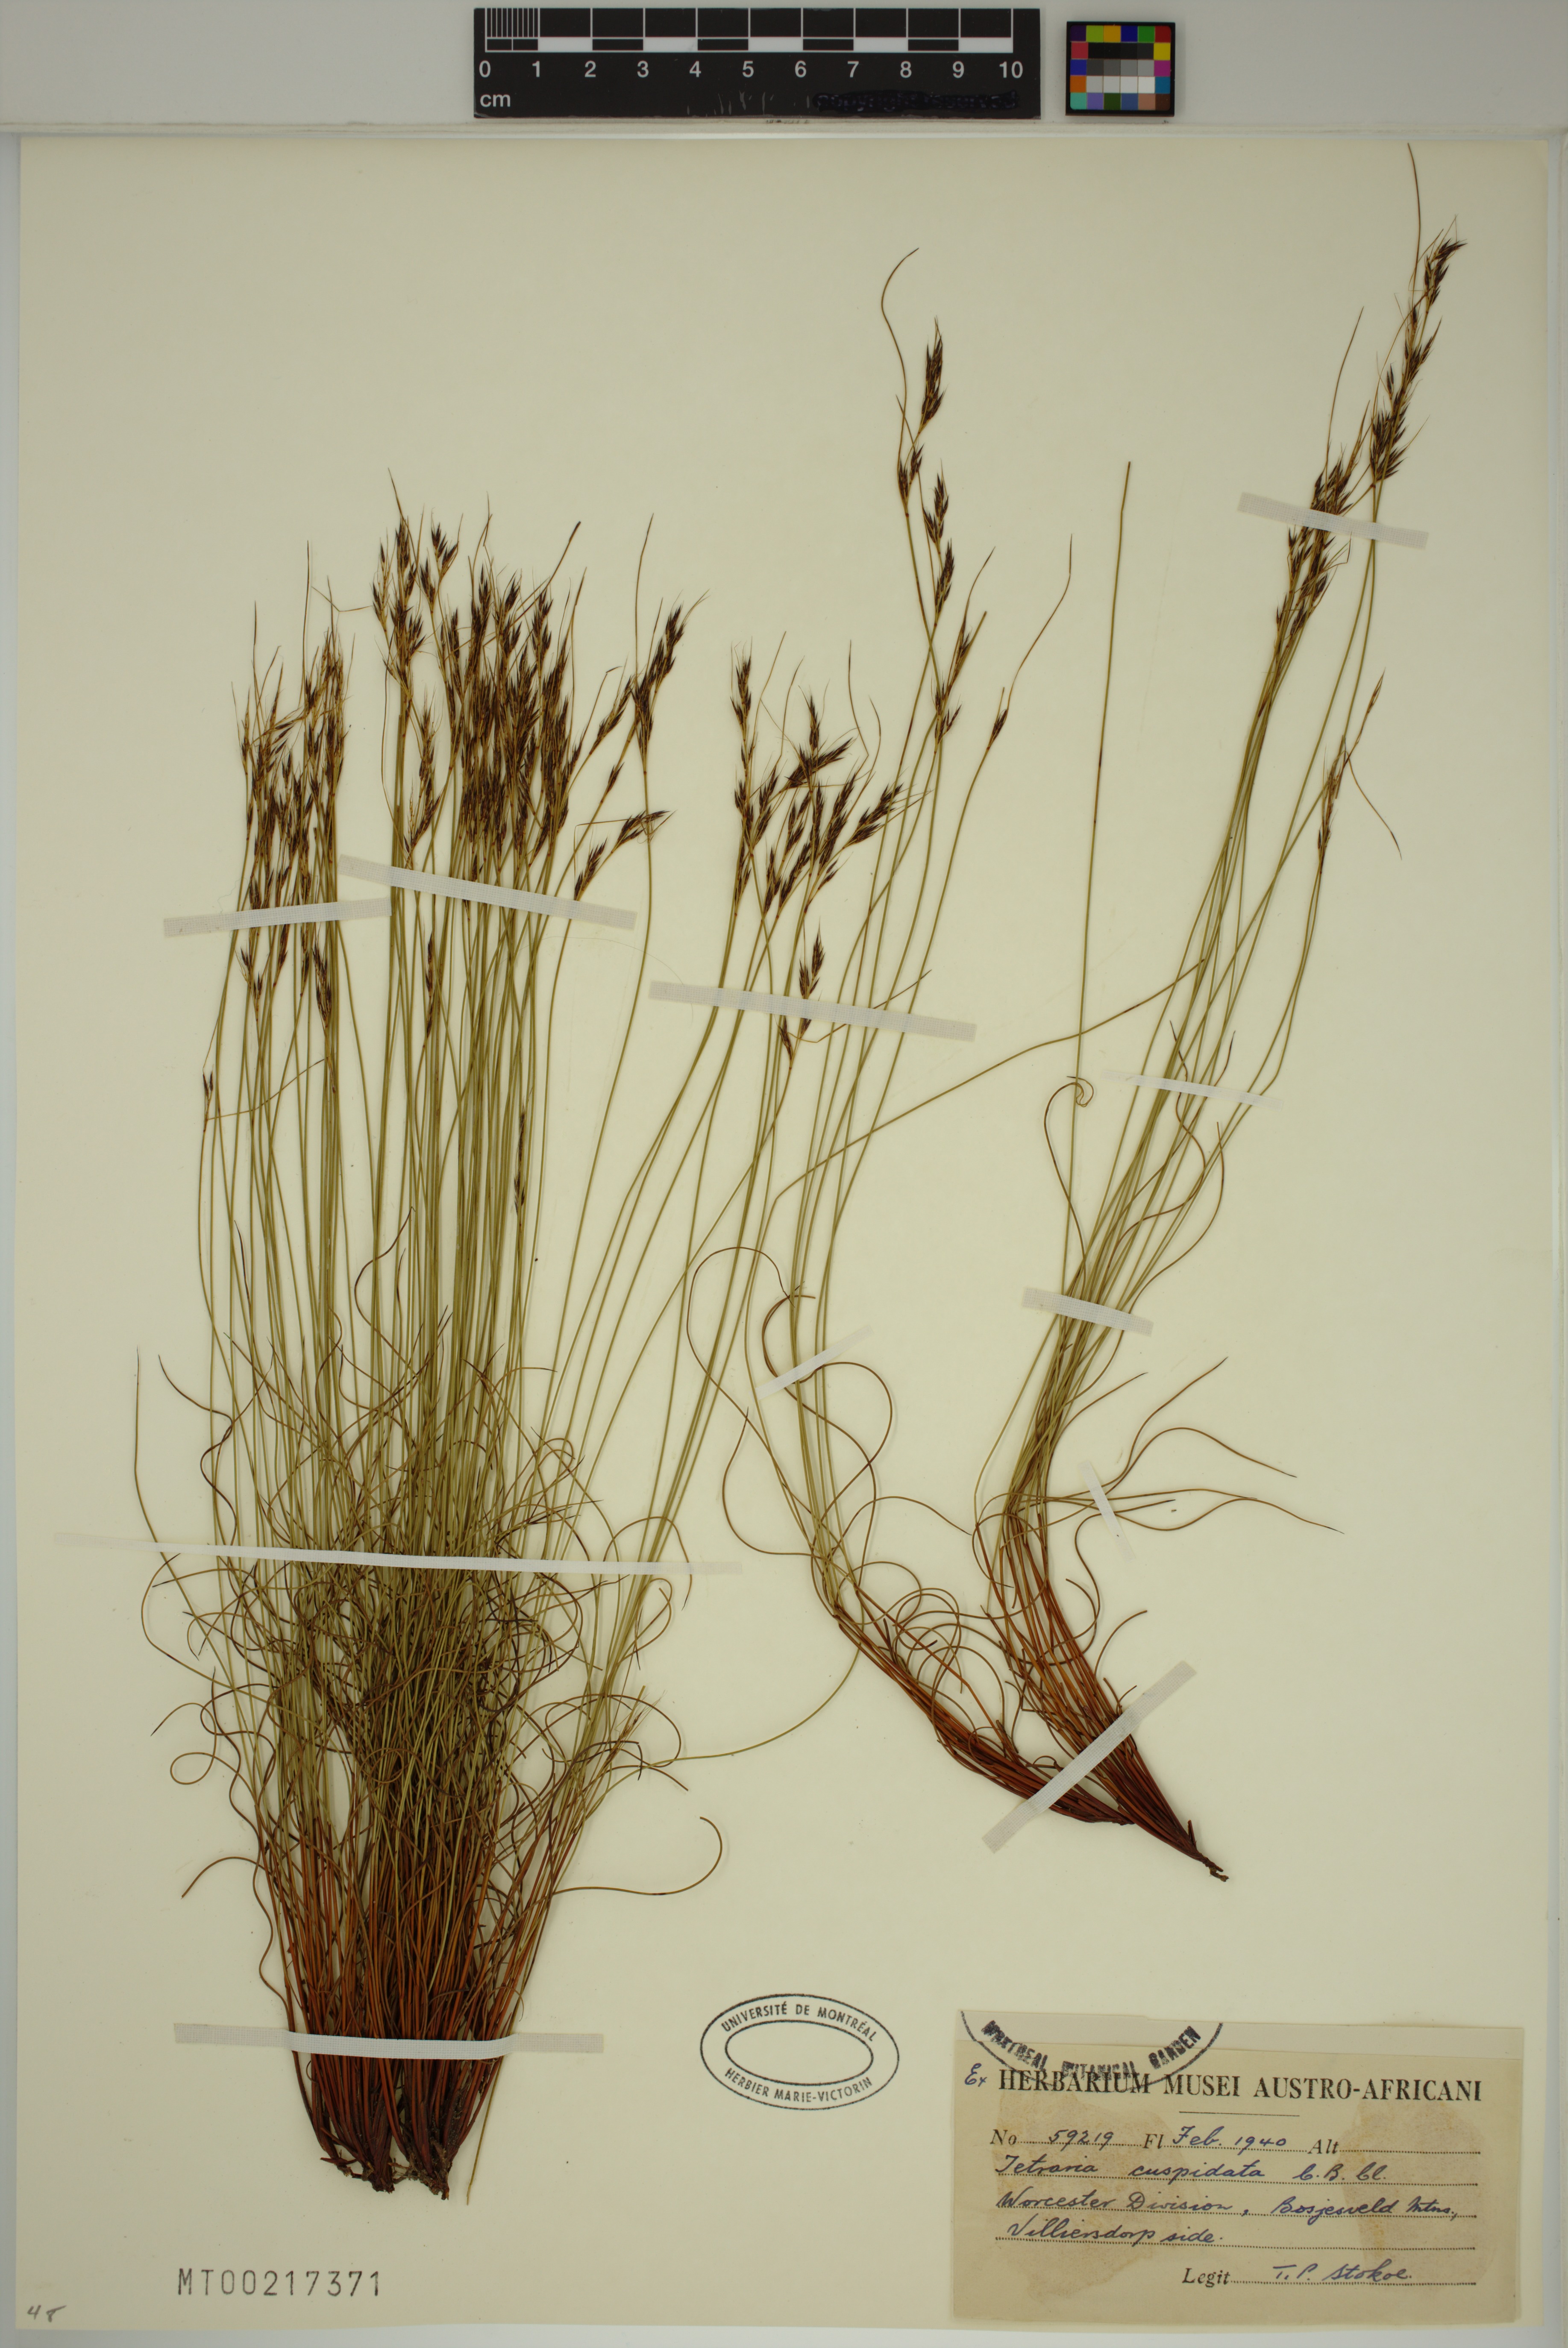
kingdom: Plantae
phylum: Tracheophyta
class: Liliopsida
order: Poales
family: Cyperaceae
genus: Schoenus
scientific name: Schoenus cuspidatus
